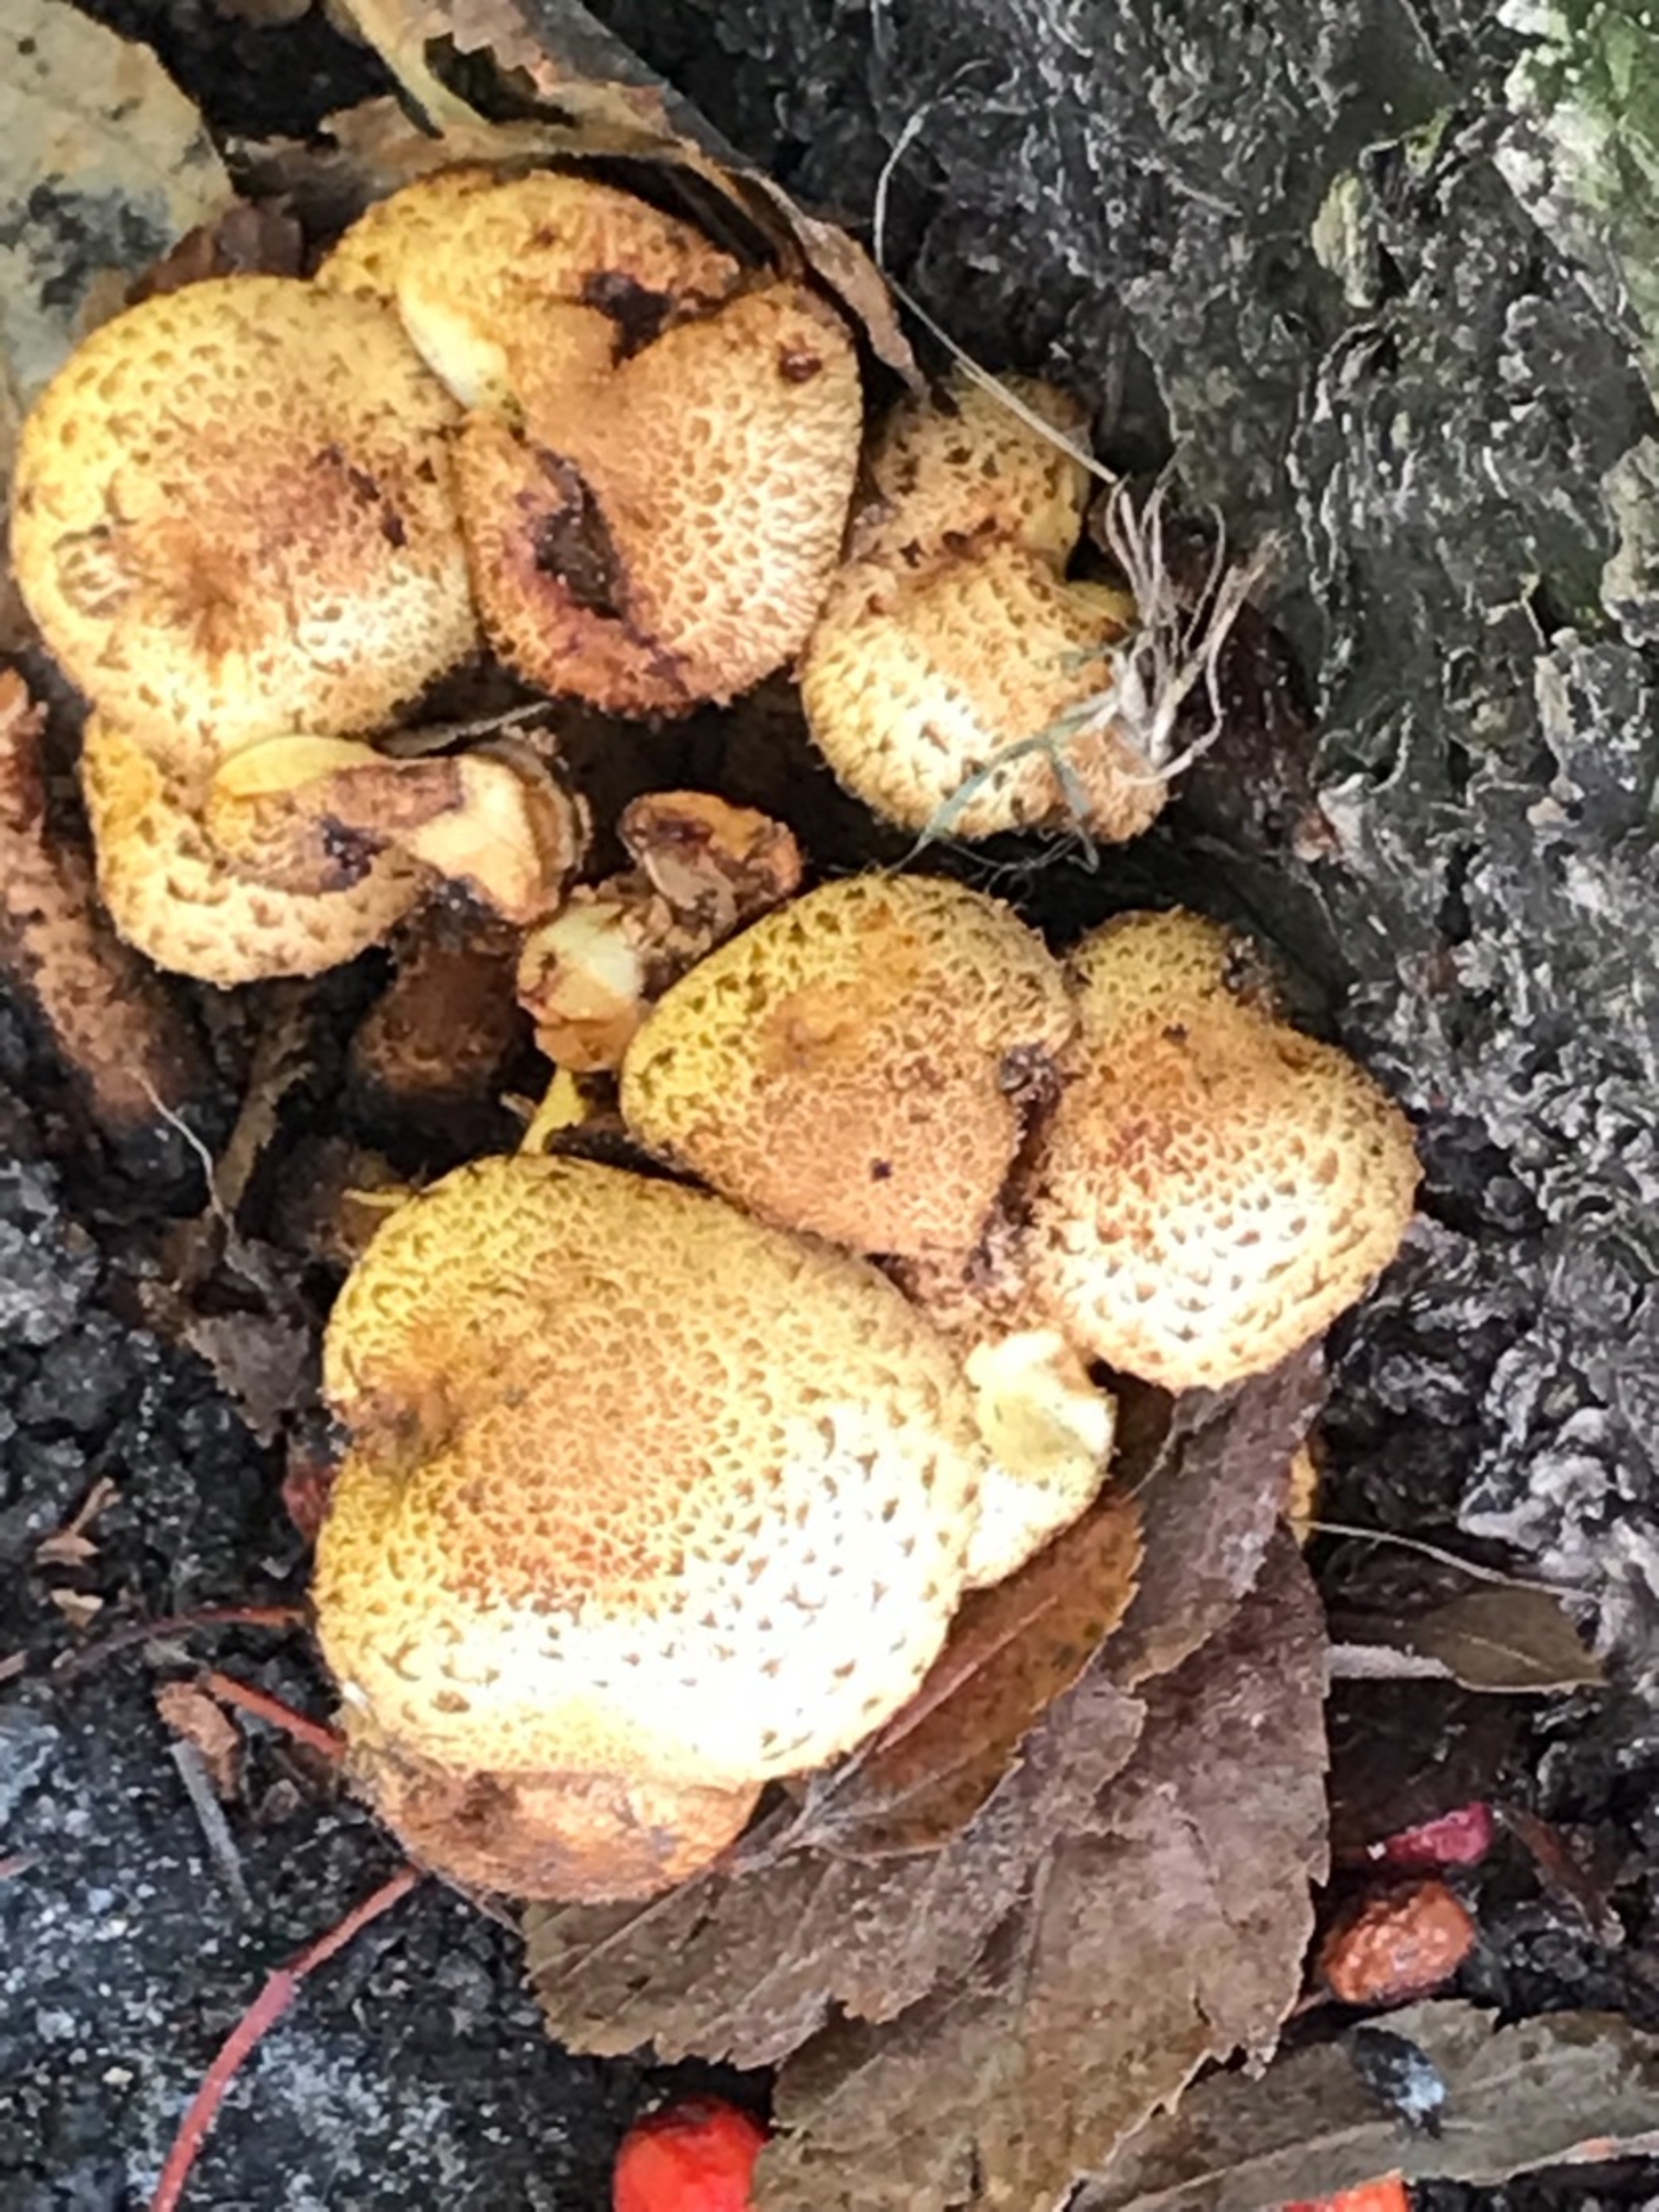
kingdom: Fungi
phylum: Basidiomycota
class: Agaricomycetes
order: Agaricales
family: Strophariaceae
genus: Pholiota
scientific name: Pholiota squarrosa
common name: Krumskællet skælhat
